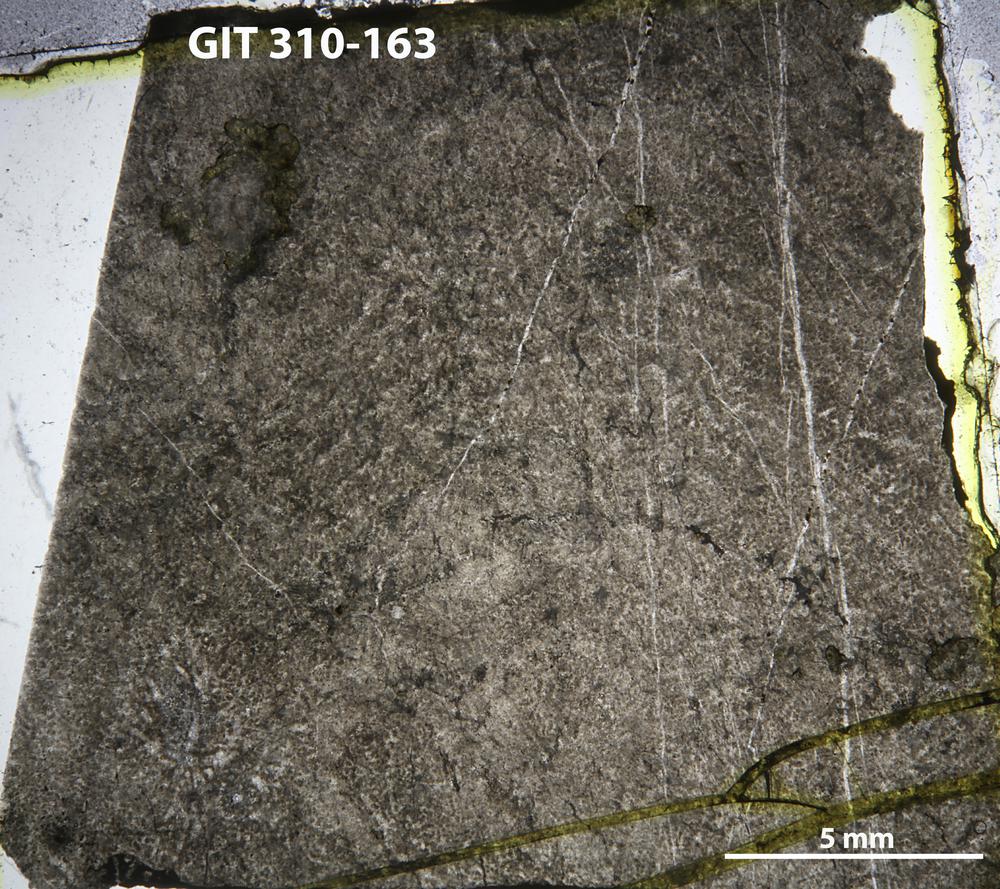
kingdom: Animalia
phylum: Porifera
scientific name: Porifera
